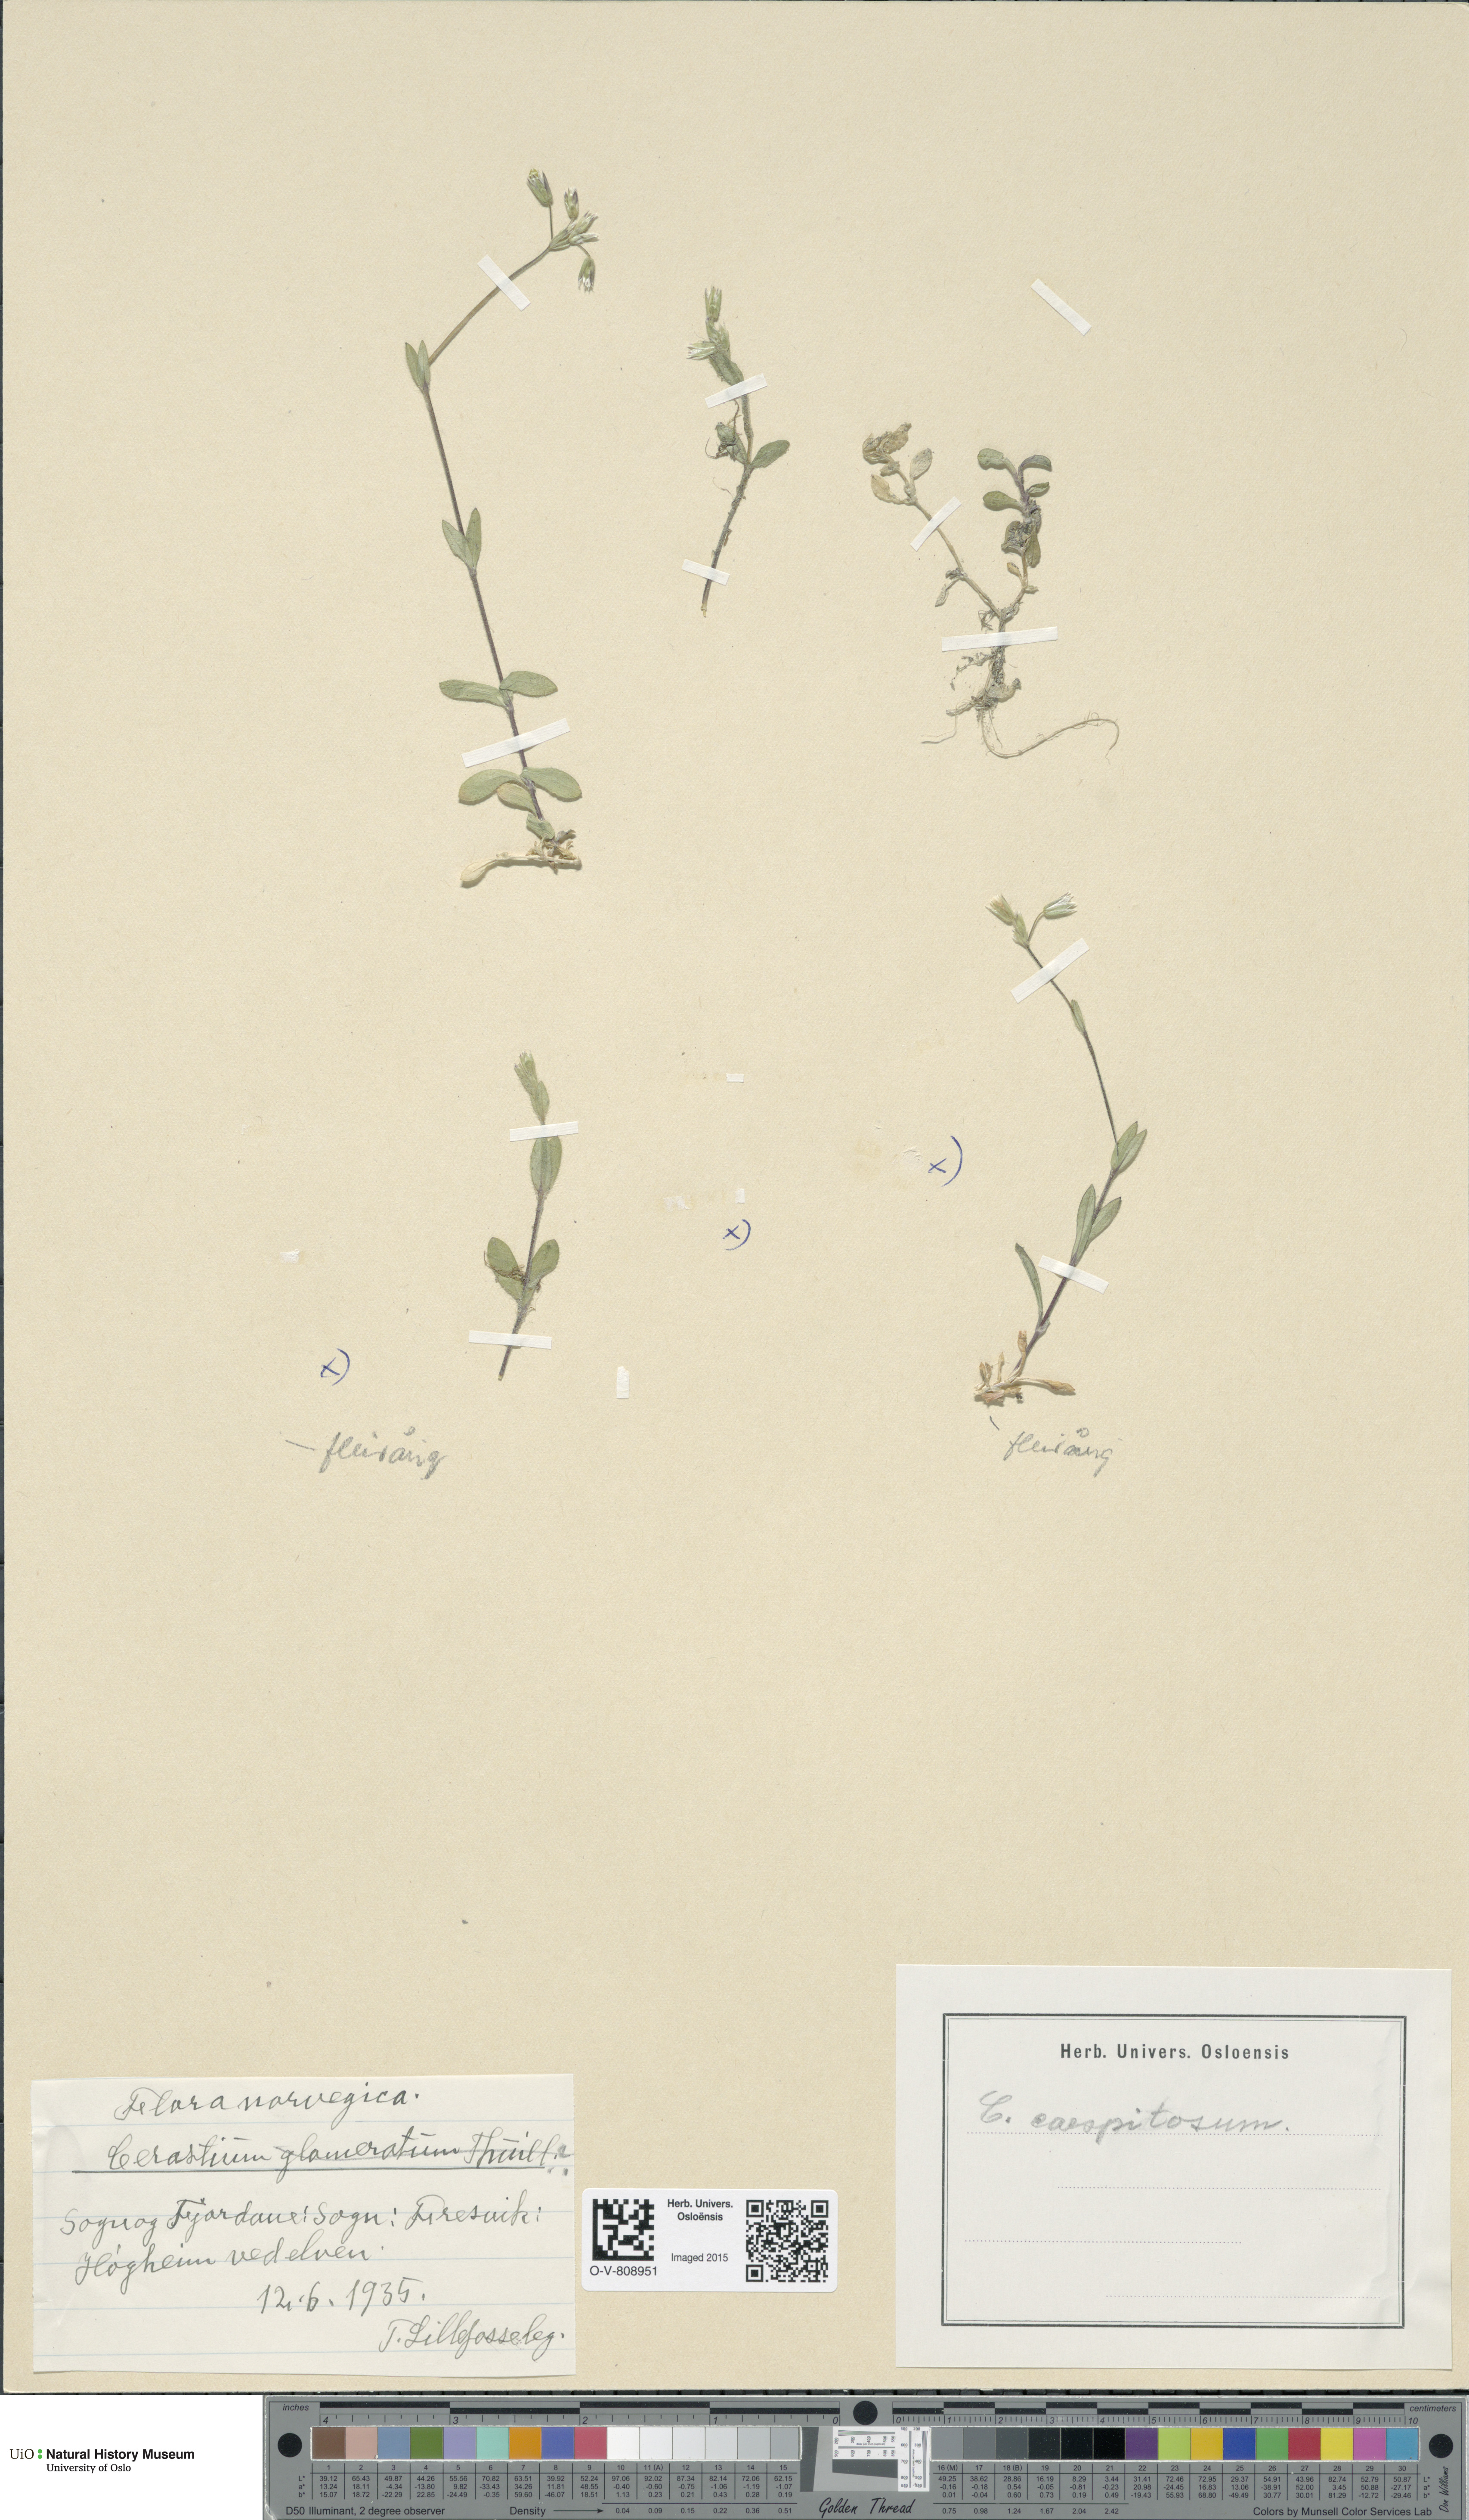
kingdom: Plantae
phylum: Tracheophyta
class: Magnoliopsida
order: Caryophyllales
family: Caryophyllaceae
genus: Cerastium
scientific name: Cerastium holosteoides
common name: Big chickweed
